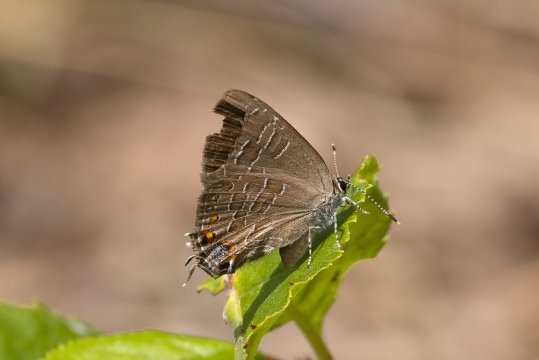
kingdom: Animalia
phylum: Arthropoda
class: Insecta
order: Lepidoptera
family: Lycaenidae
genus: Satyrium
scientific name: Satyrium liparops
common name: Striped Hairstreak
